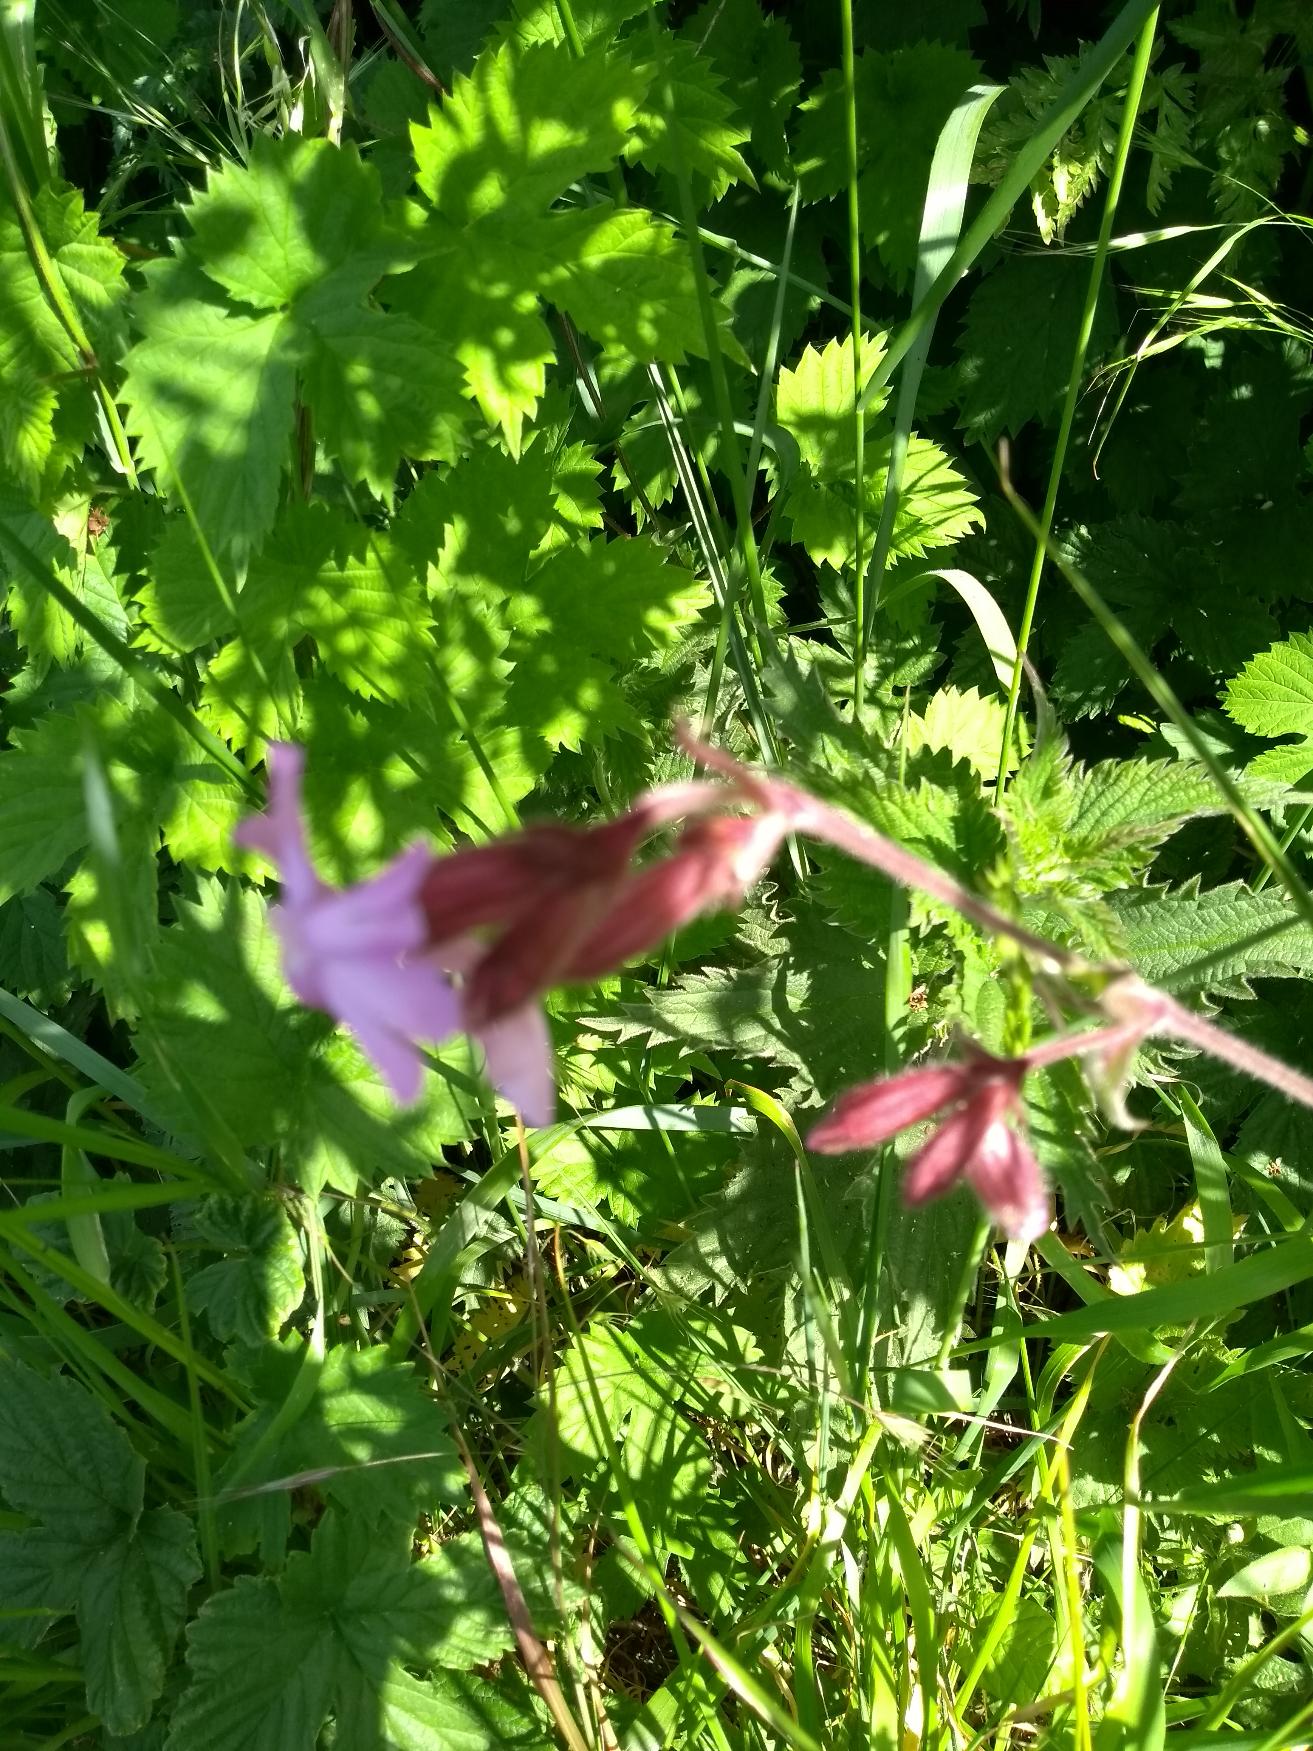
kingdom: Plantae
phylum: Tracheophyta
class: Magnoliopsida
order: Caryophyllales
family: Caryophyllaceae
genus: Silene
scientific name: Silene dioica
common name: Dagpragtstjerne
